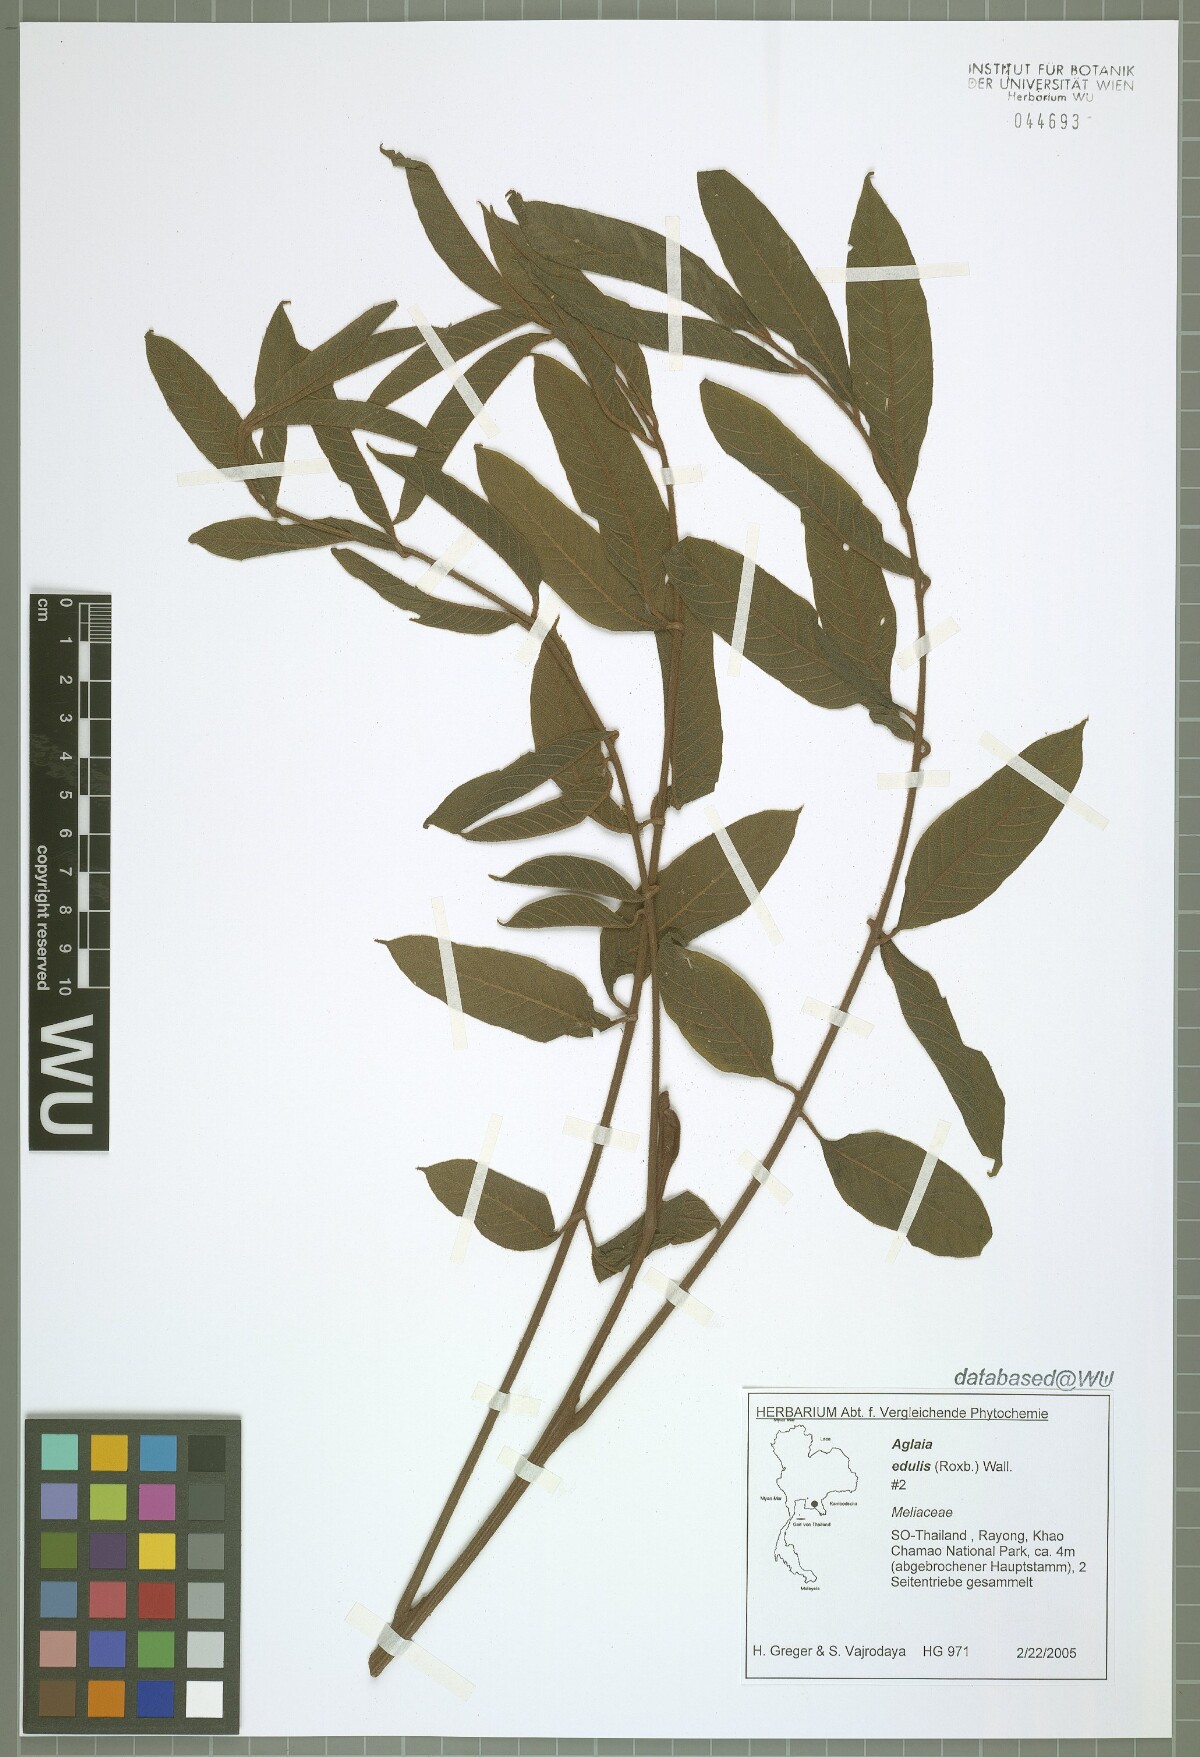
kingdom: Plantae
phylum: Tracheophyta
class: Magnoliopsida
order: Sapindales
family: Meliaceae
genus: Aglaia
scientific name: Aglaia edulis
